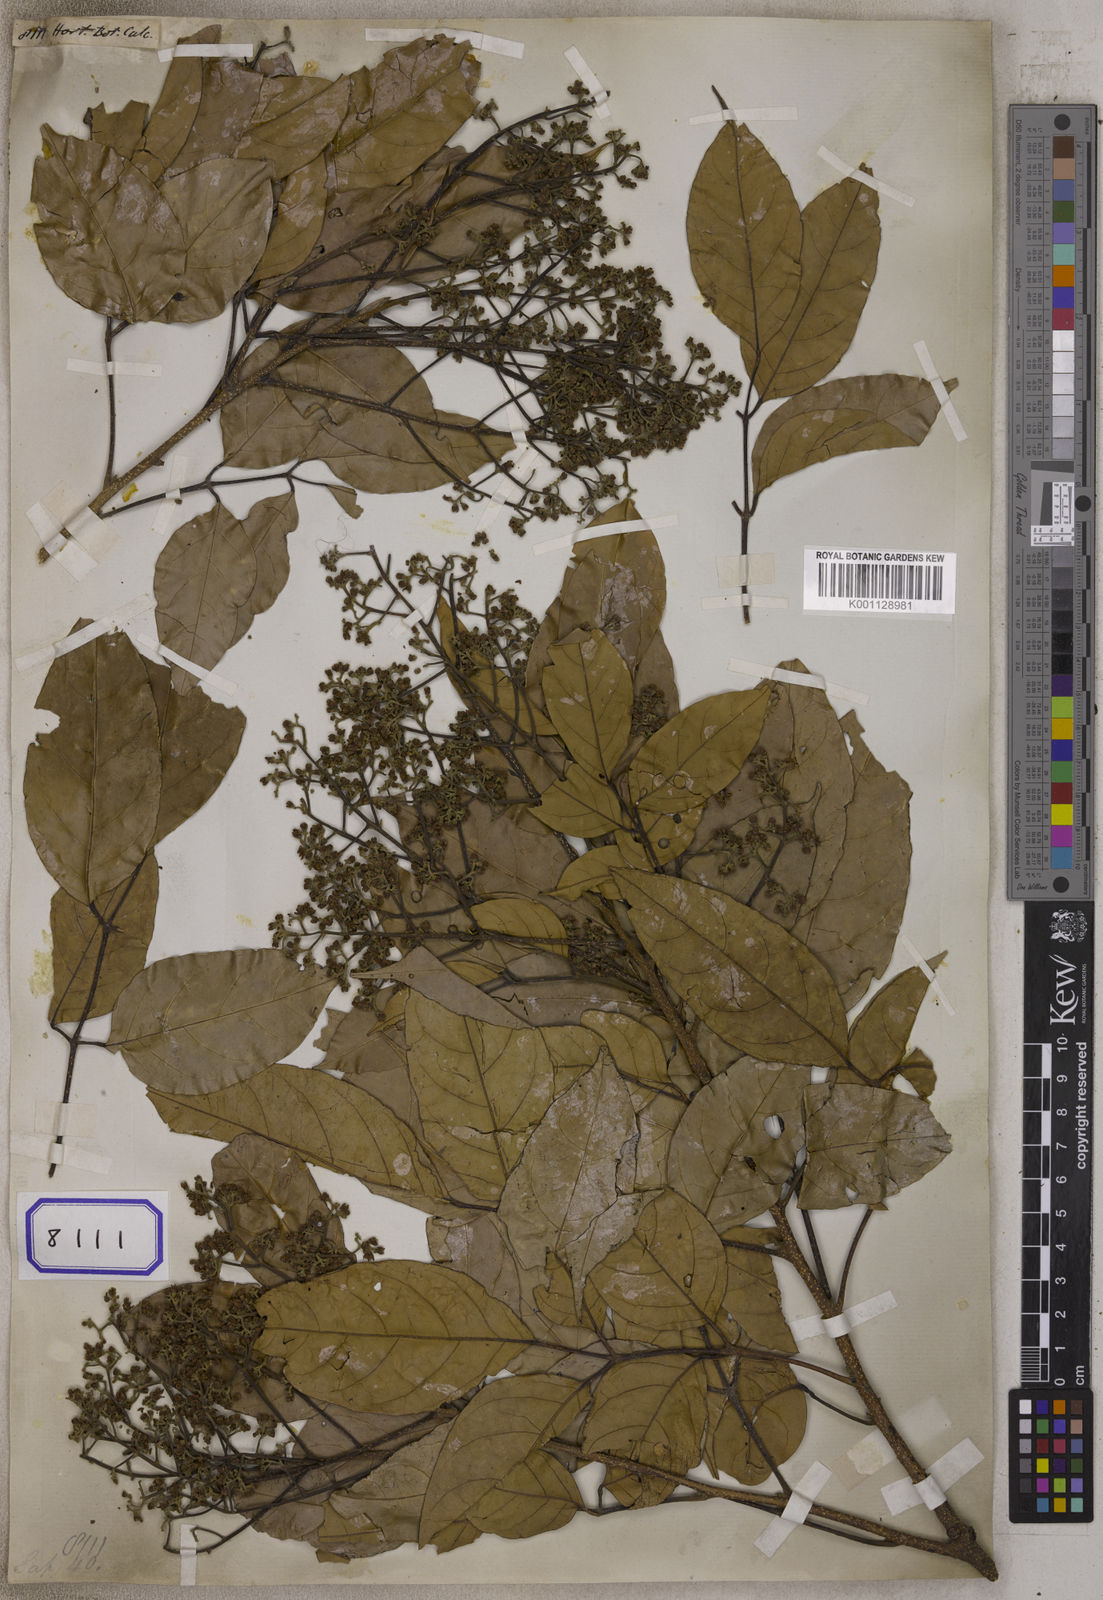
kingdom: Plantae
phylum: Tracheophyta
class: Magnoliopsida
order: Sapindales
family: Sapindaceae
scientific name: Sapindaceae
